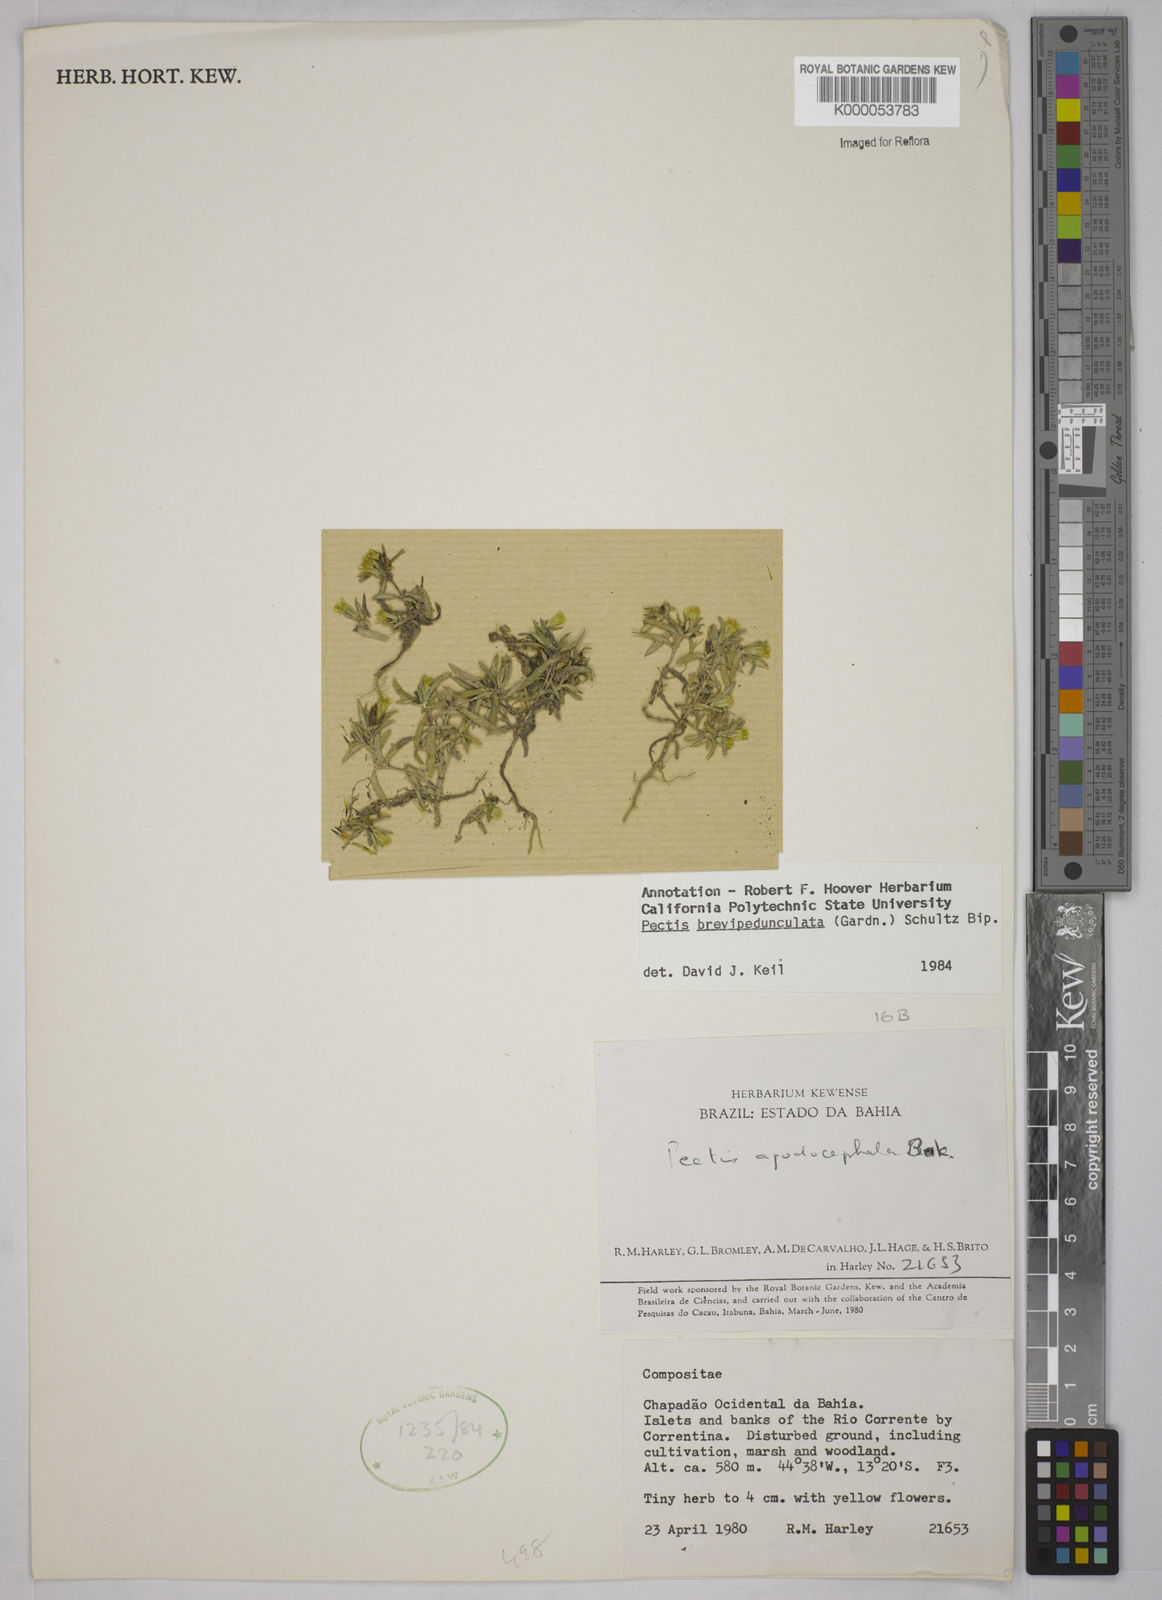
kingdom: Plantae
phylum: Tracheophyta
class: Magnoliopsida
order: Asterales
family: Asteraceae
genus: Pectis
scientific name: Pectis brevipedunculata
